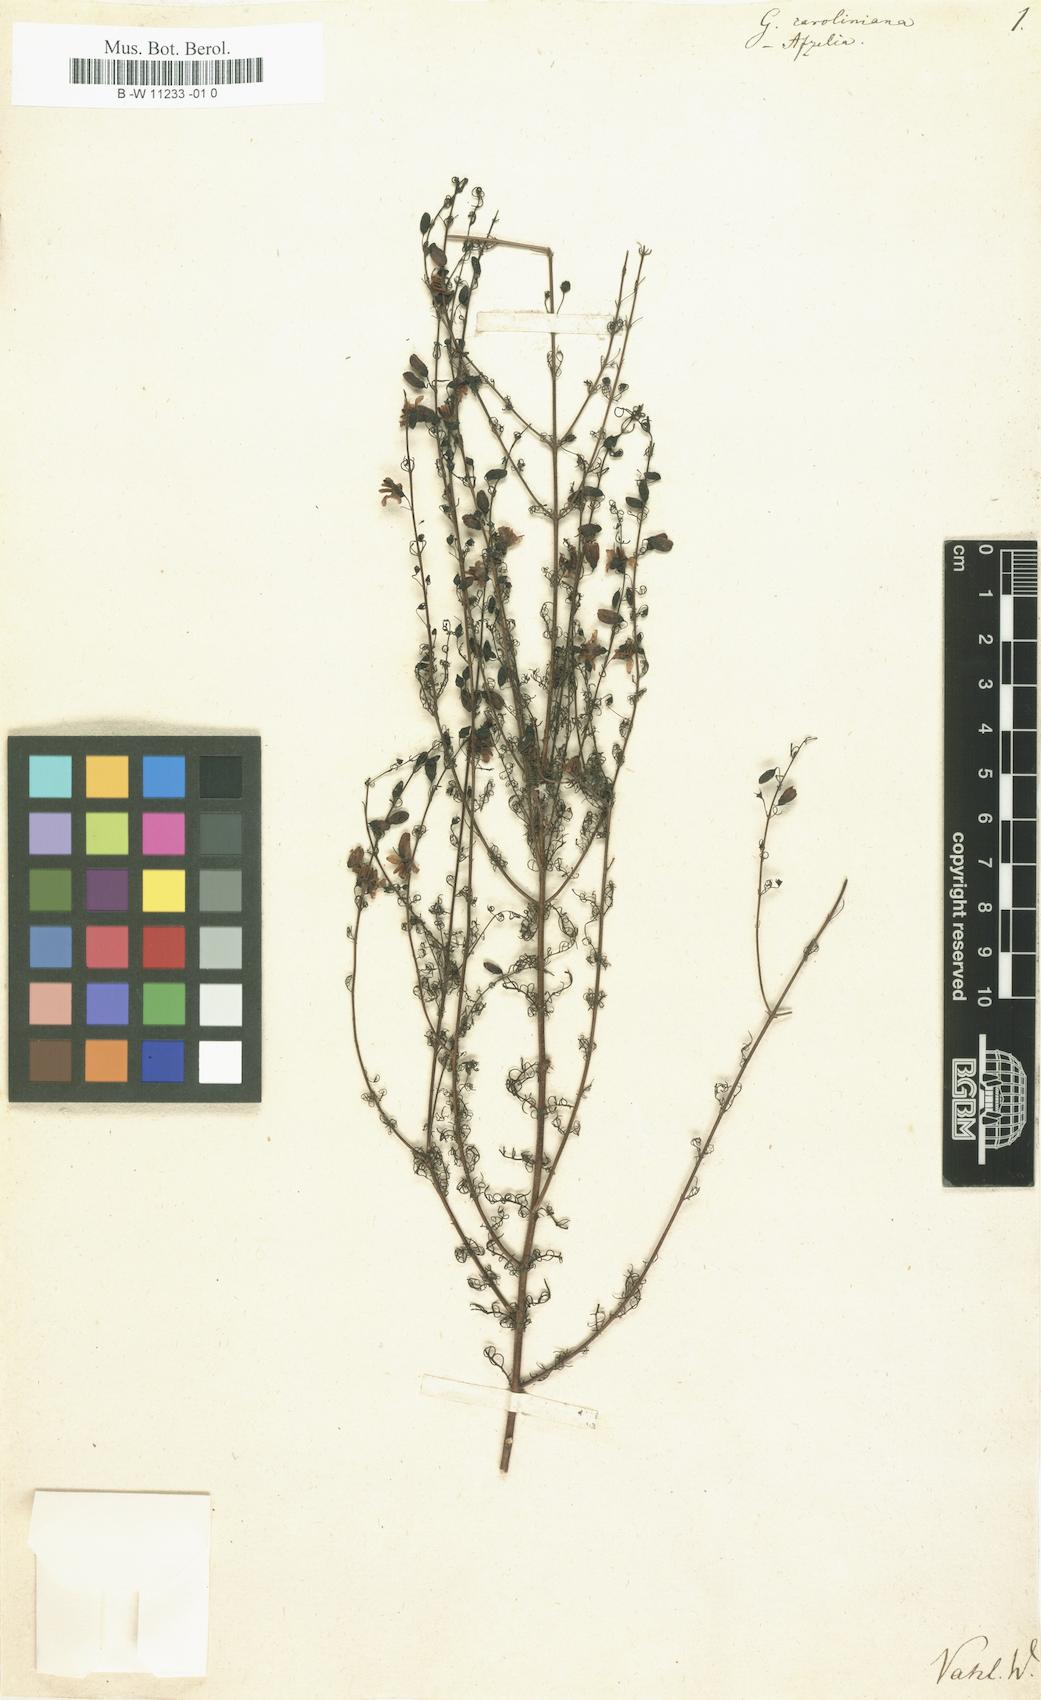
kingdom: Plantae
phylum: Tracheophyta
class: Magnoliopsida
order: Lamiales
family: Scrophulariaceae
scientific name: Scrophulariaceae
